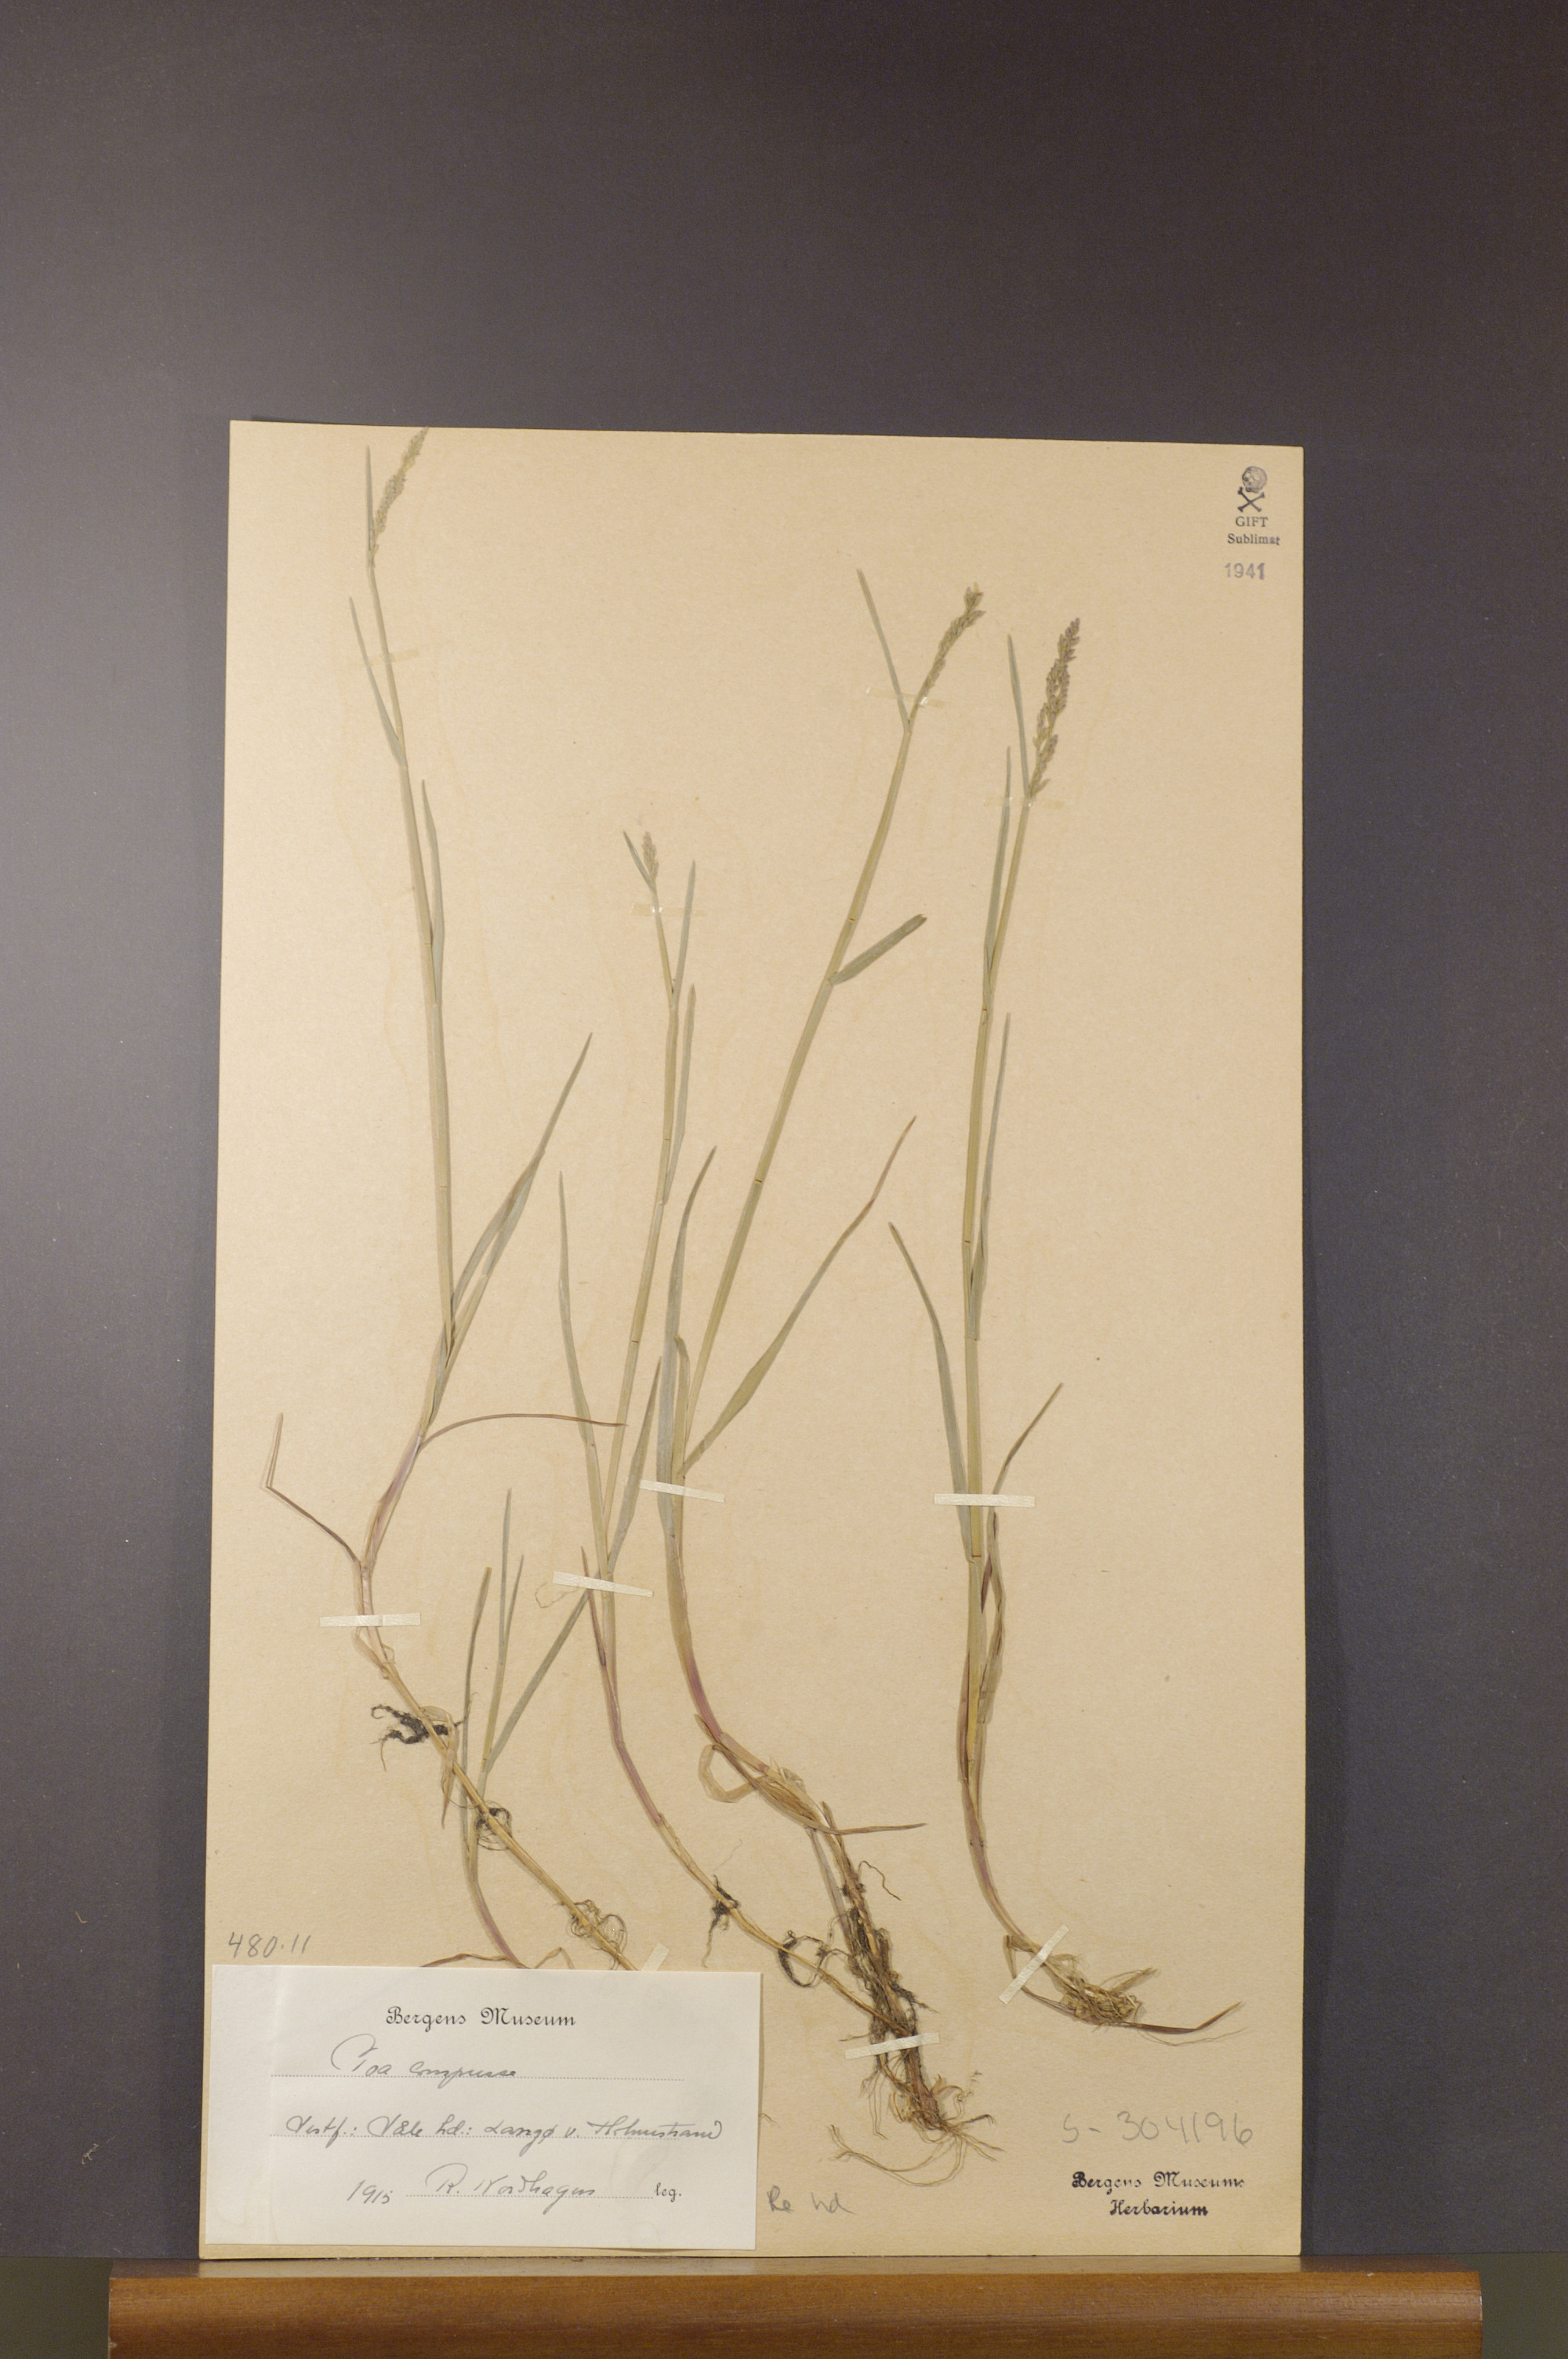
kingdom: Plantae
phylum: Tracheophyta
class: Liliopsida
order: Poales
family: Poaceae
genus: Poa
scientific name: Poa compressa
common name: Canada bluegrass
